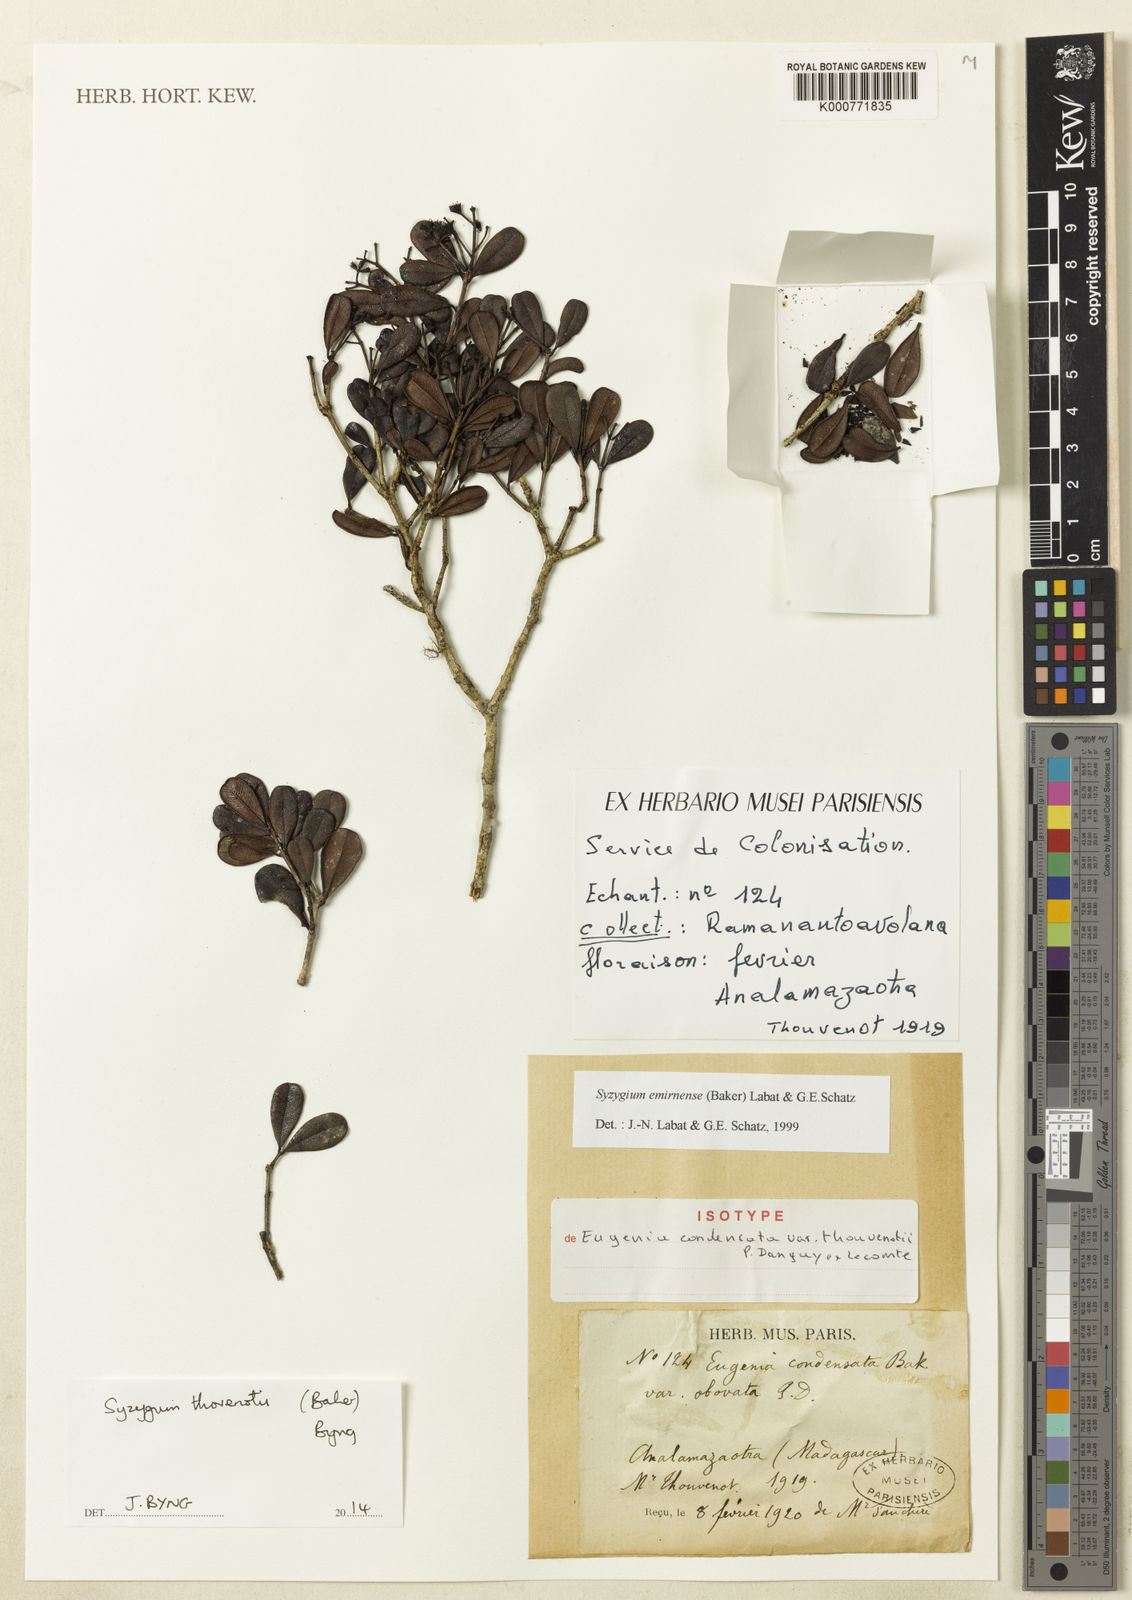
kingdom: Plantae
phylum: Tracheophyta
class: Magnoliopsida
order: Myrtales
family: Myrtaceae
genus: Syzygium
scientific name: Syzygium Jambosa condensata
